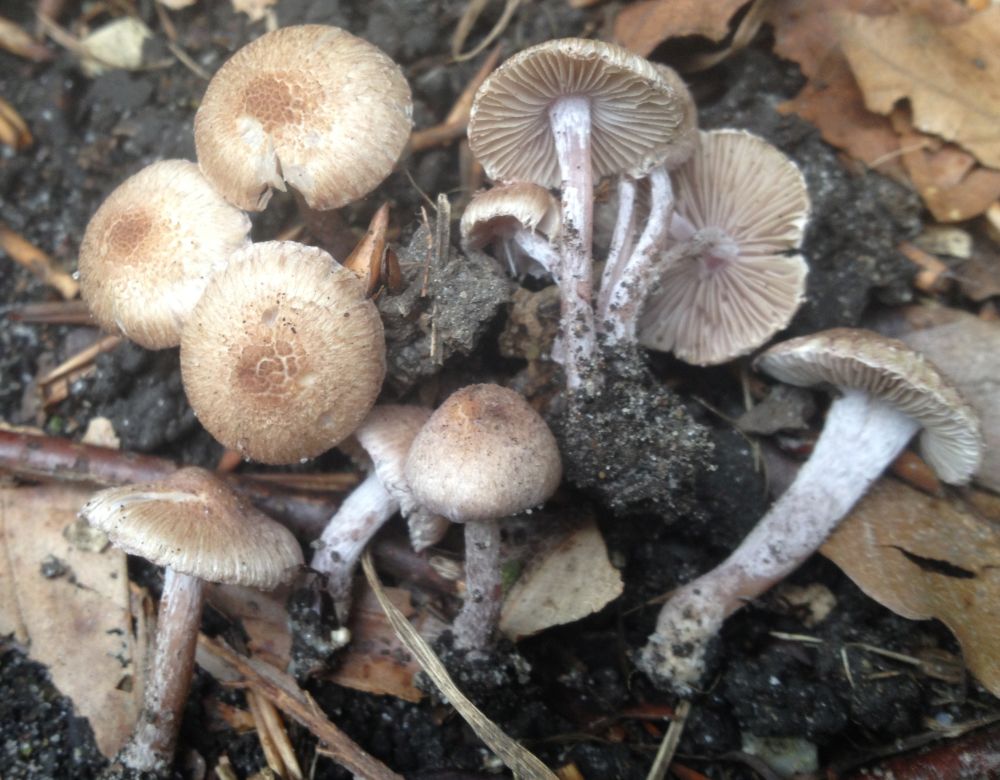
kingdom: Fungi
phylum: Basidiomycota
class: Agaricomycetes
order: Agaricales
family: Inocybaceae
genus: Inocybe
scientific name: Inocybe griseolilacina
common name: lillagrå trævlhat
